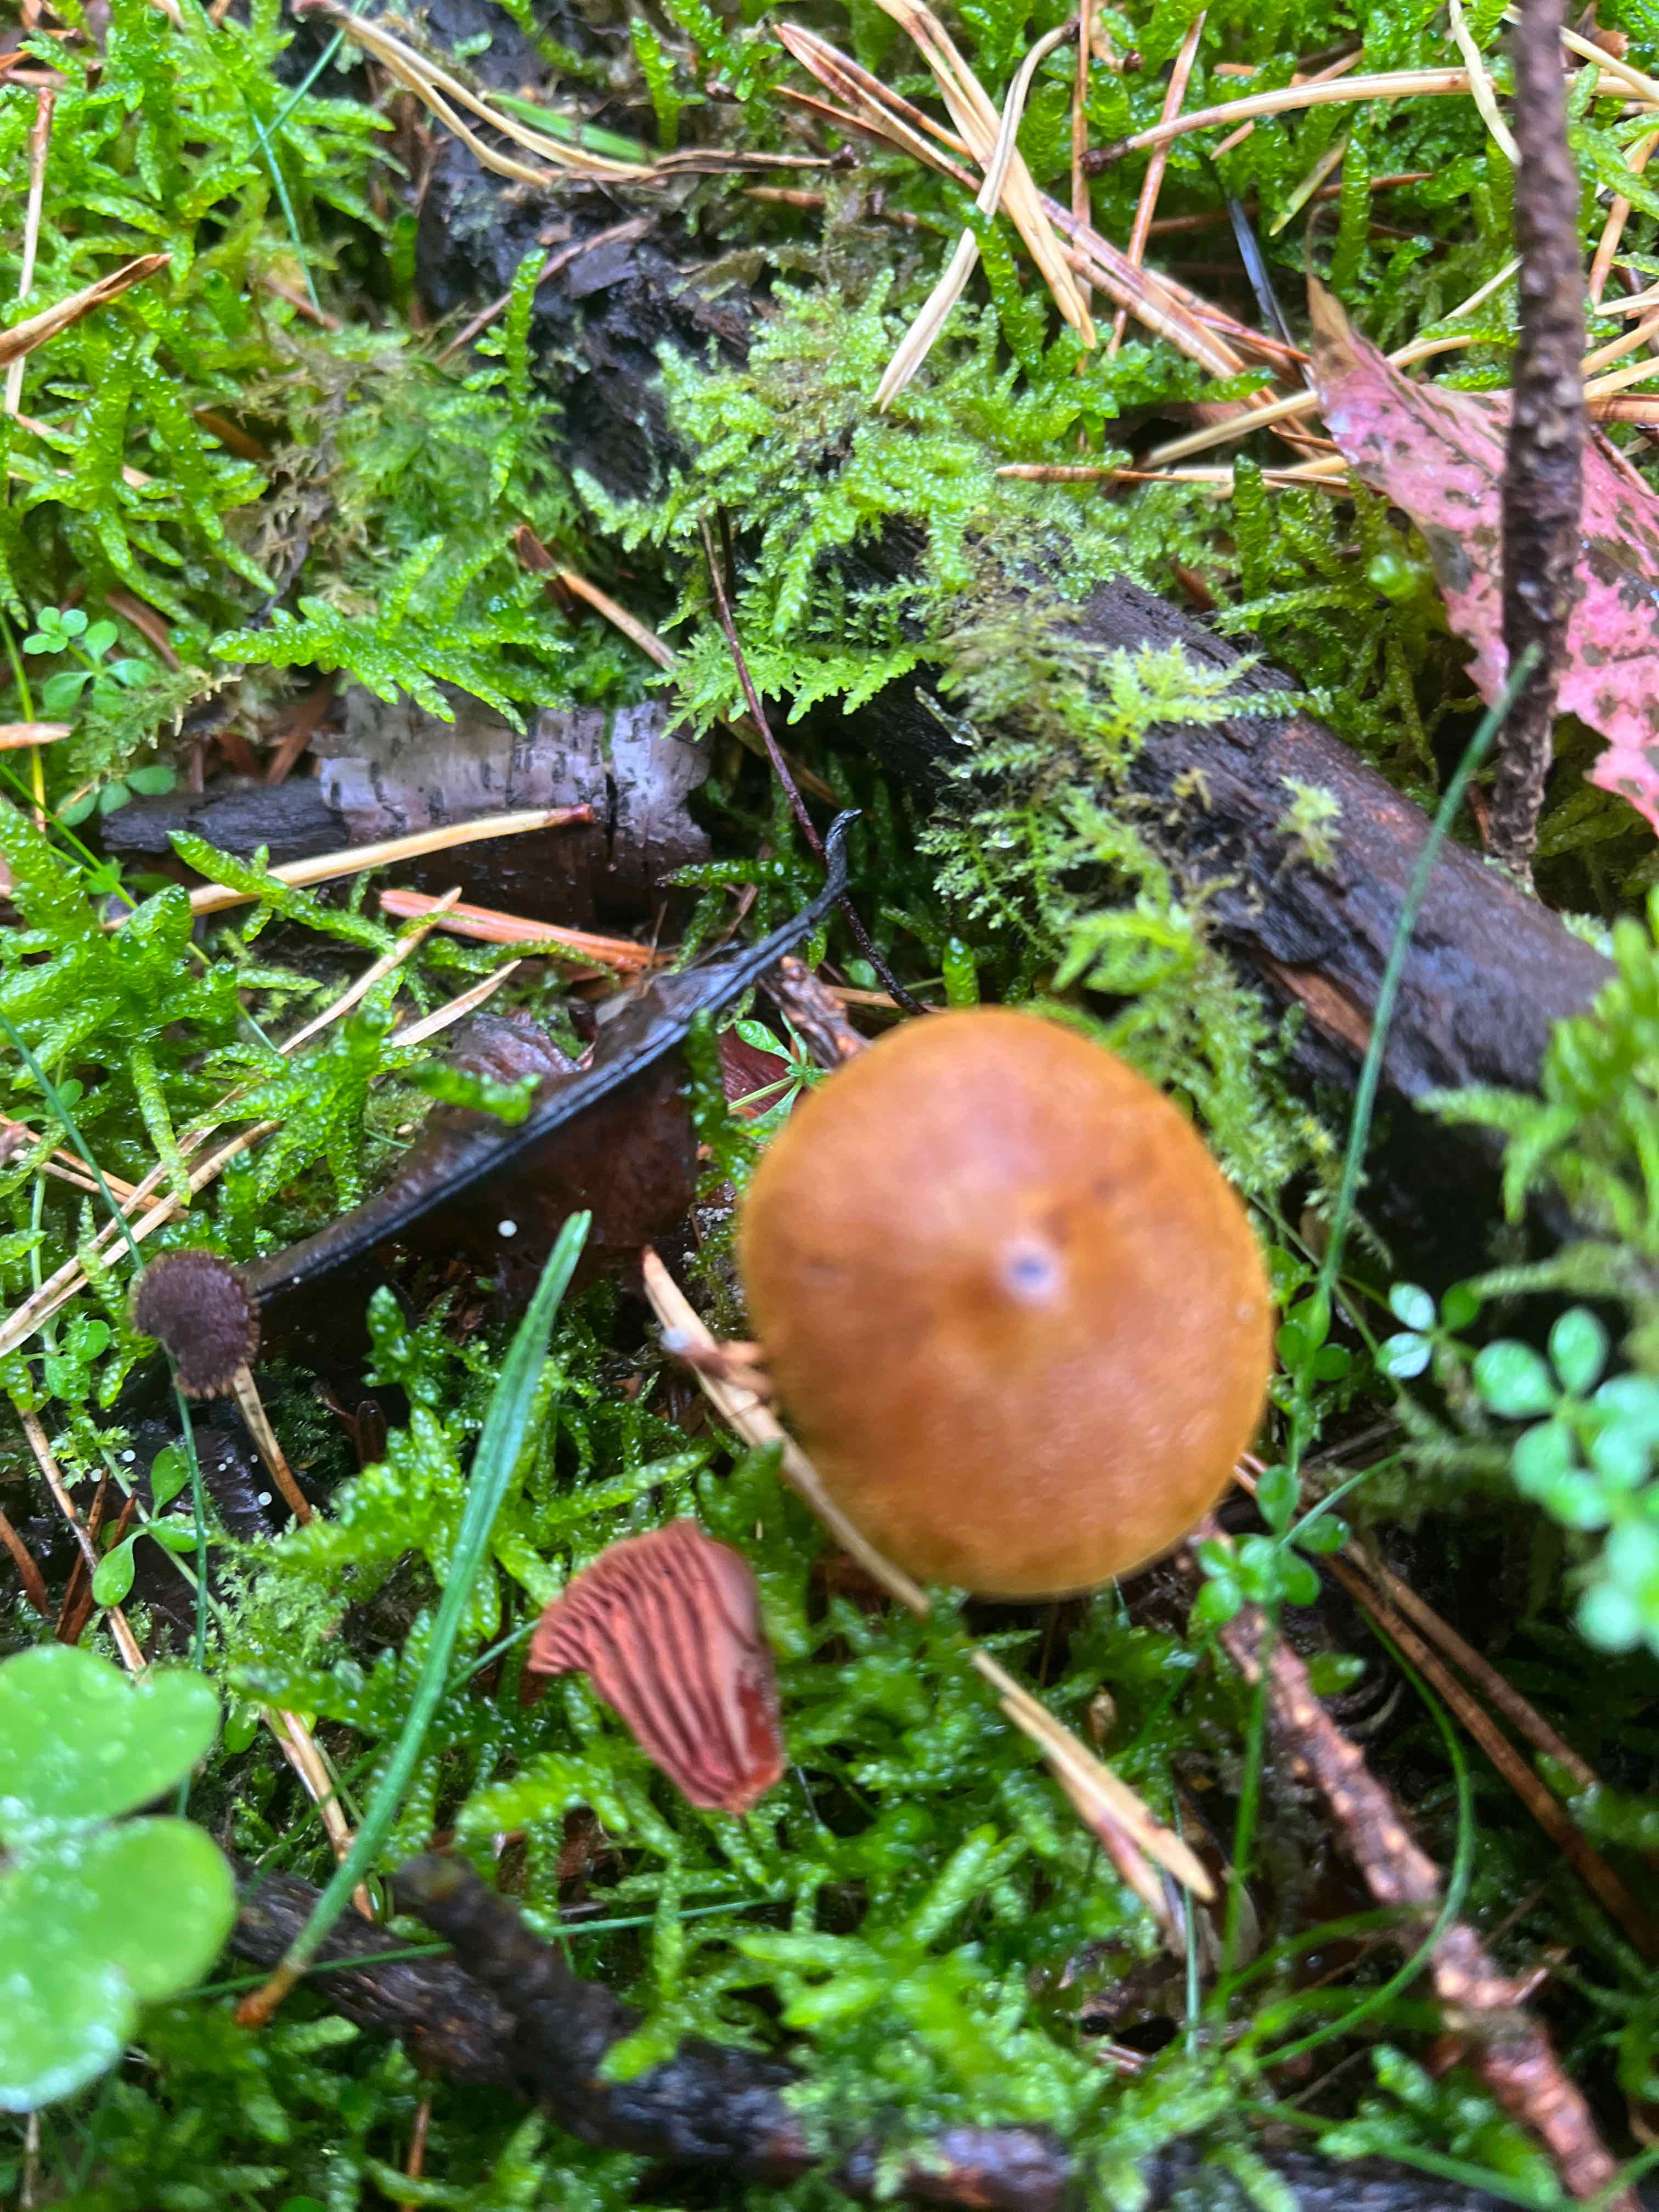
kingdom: Fungi
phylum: Basidiomycota
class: Agaricomycetes
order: Agaricales
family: Cortinariaceae
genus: Cortinarius
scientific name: Cortinarius
